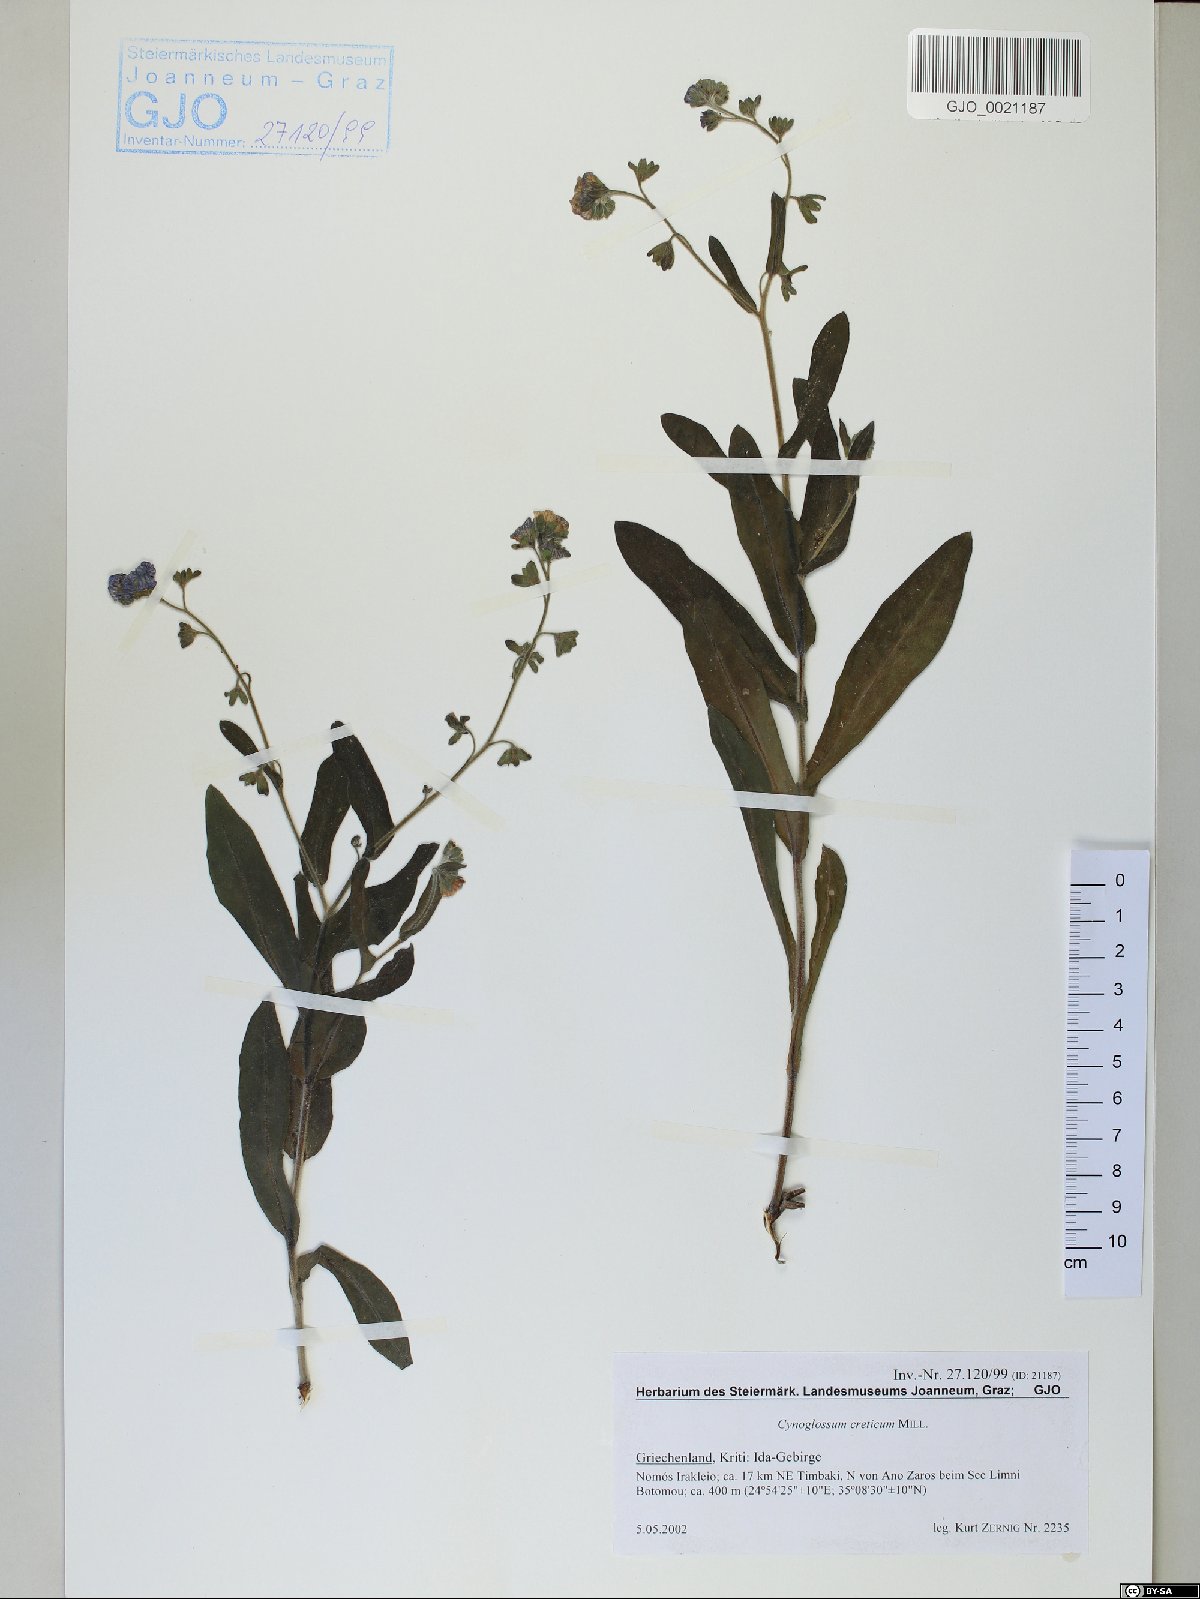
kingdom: Plantae
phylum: Tracheophyta
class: Magnoliopsida
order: Boraginales
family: Boraginaceae
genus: Cynoglossum
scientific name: Cynoglossum creticum
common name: Blue hound's tongue
